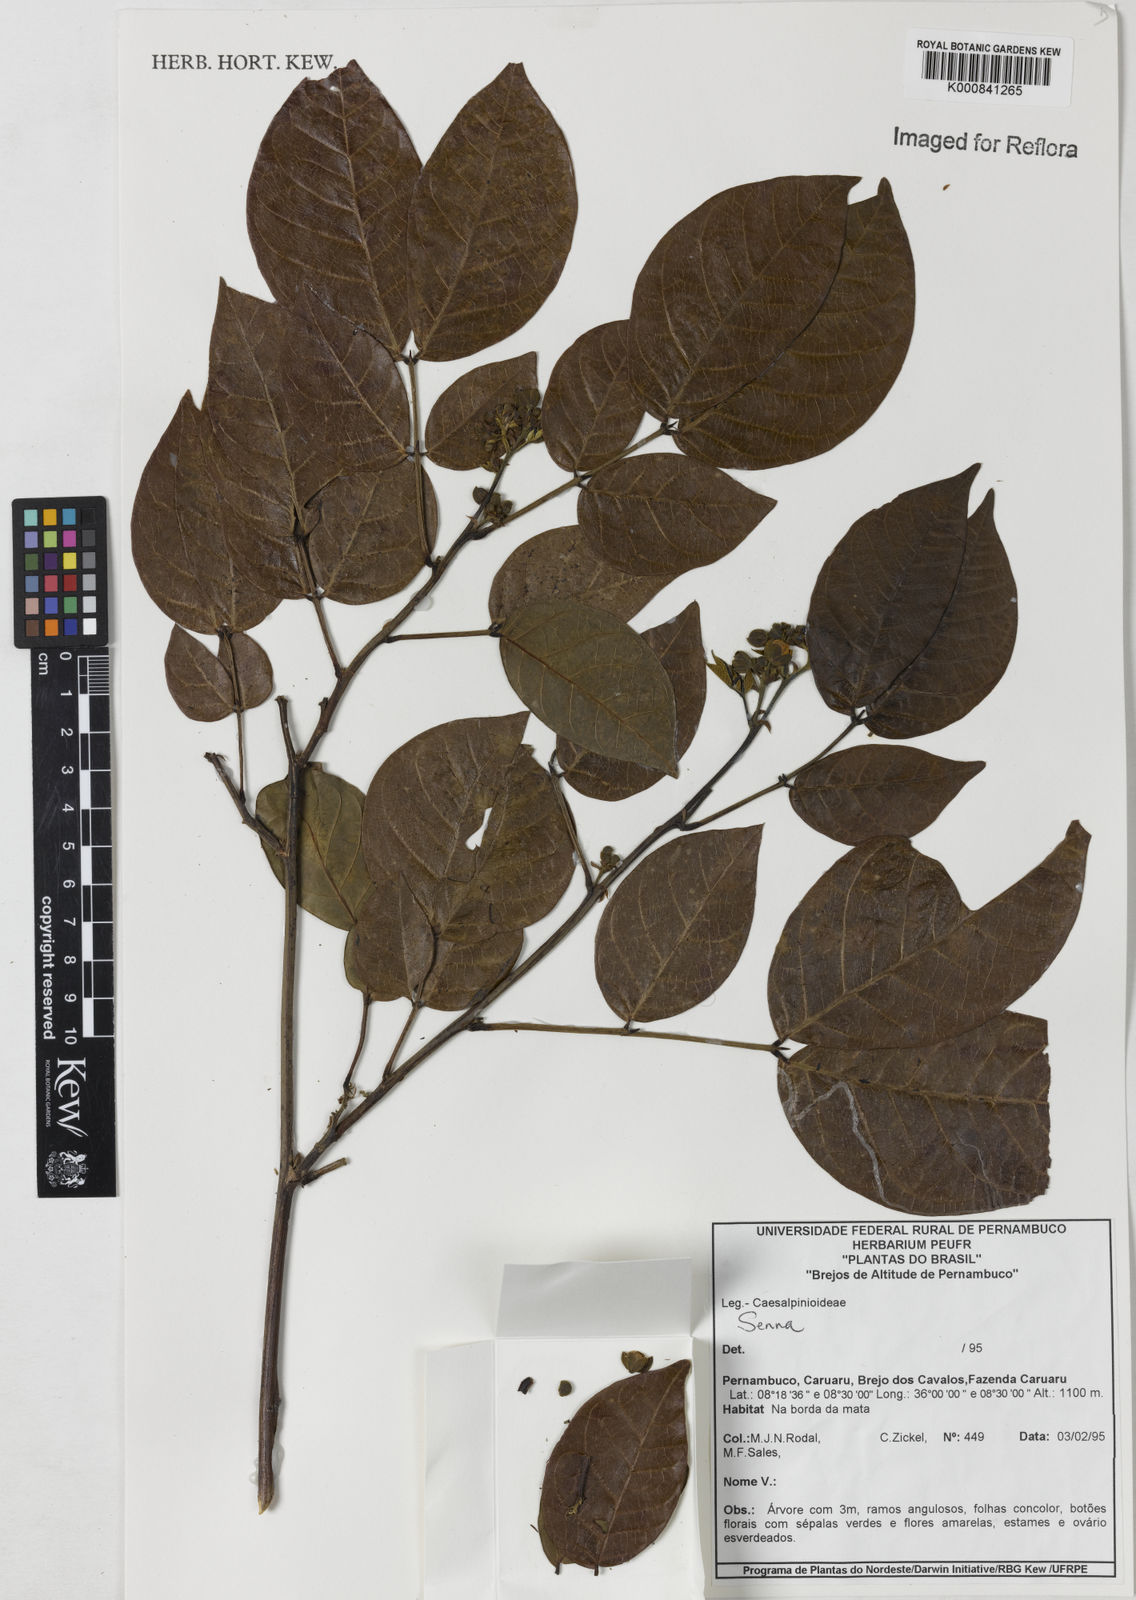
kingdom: Plantae
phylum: Tracheophyta
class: Magnoliopsida
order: Fabales
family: Fabaceae
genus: Senna
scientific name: Senna quinquangulata
